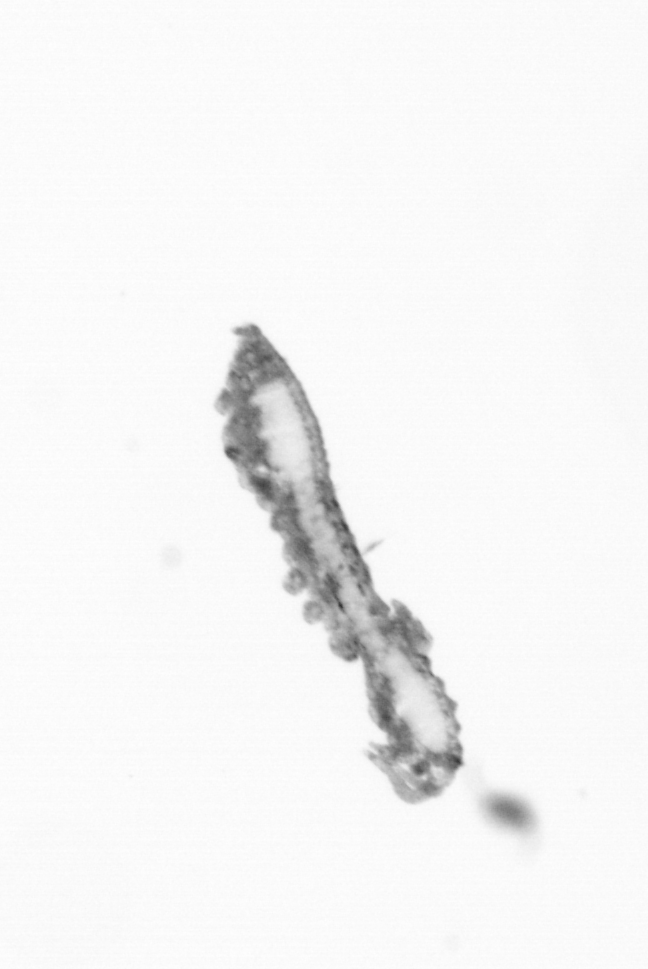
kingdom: Animalia
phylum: Annelida
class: Polychaeta
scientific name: Polychaeta
